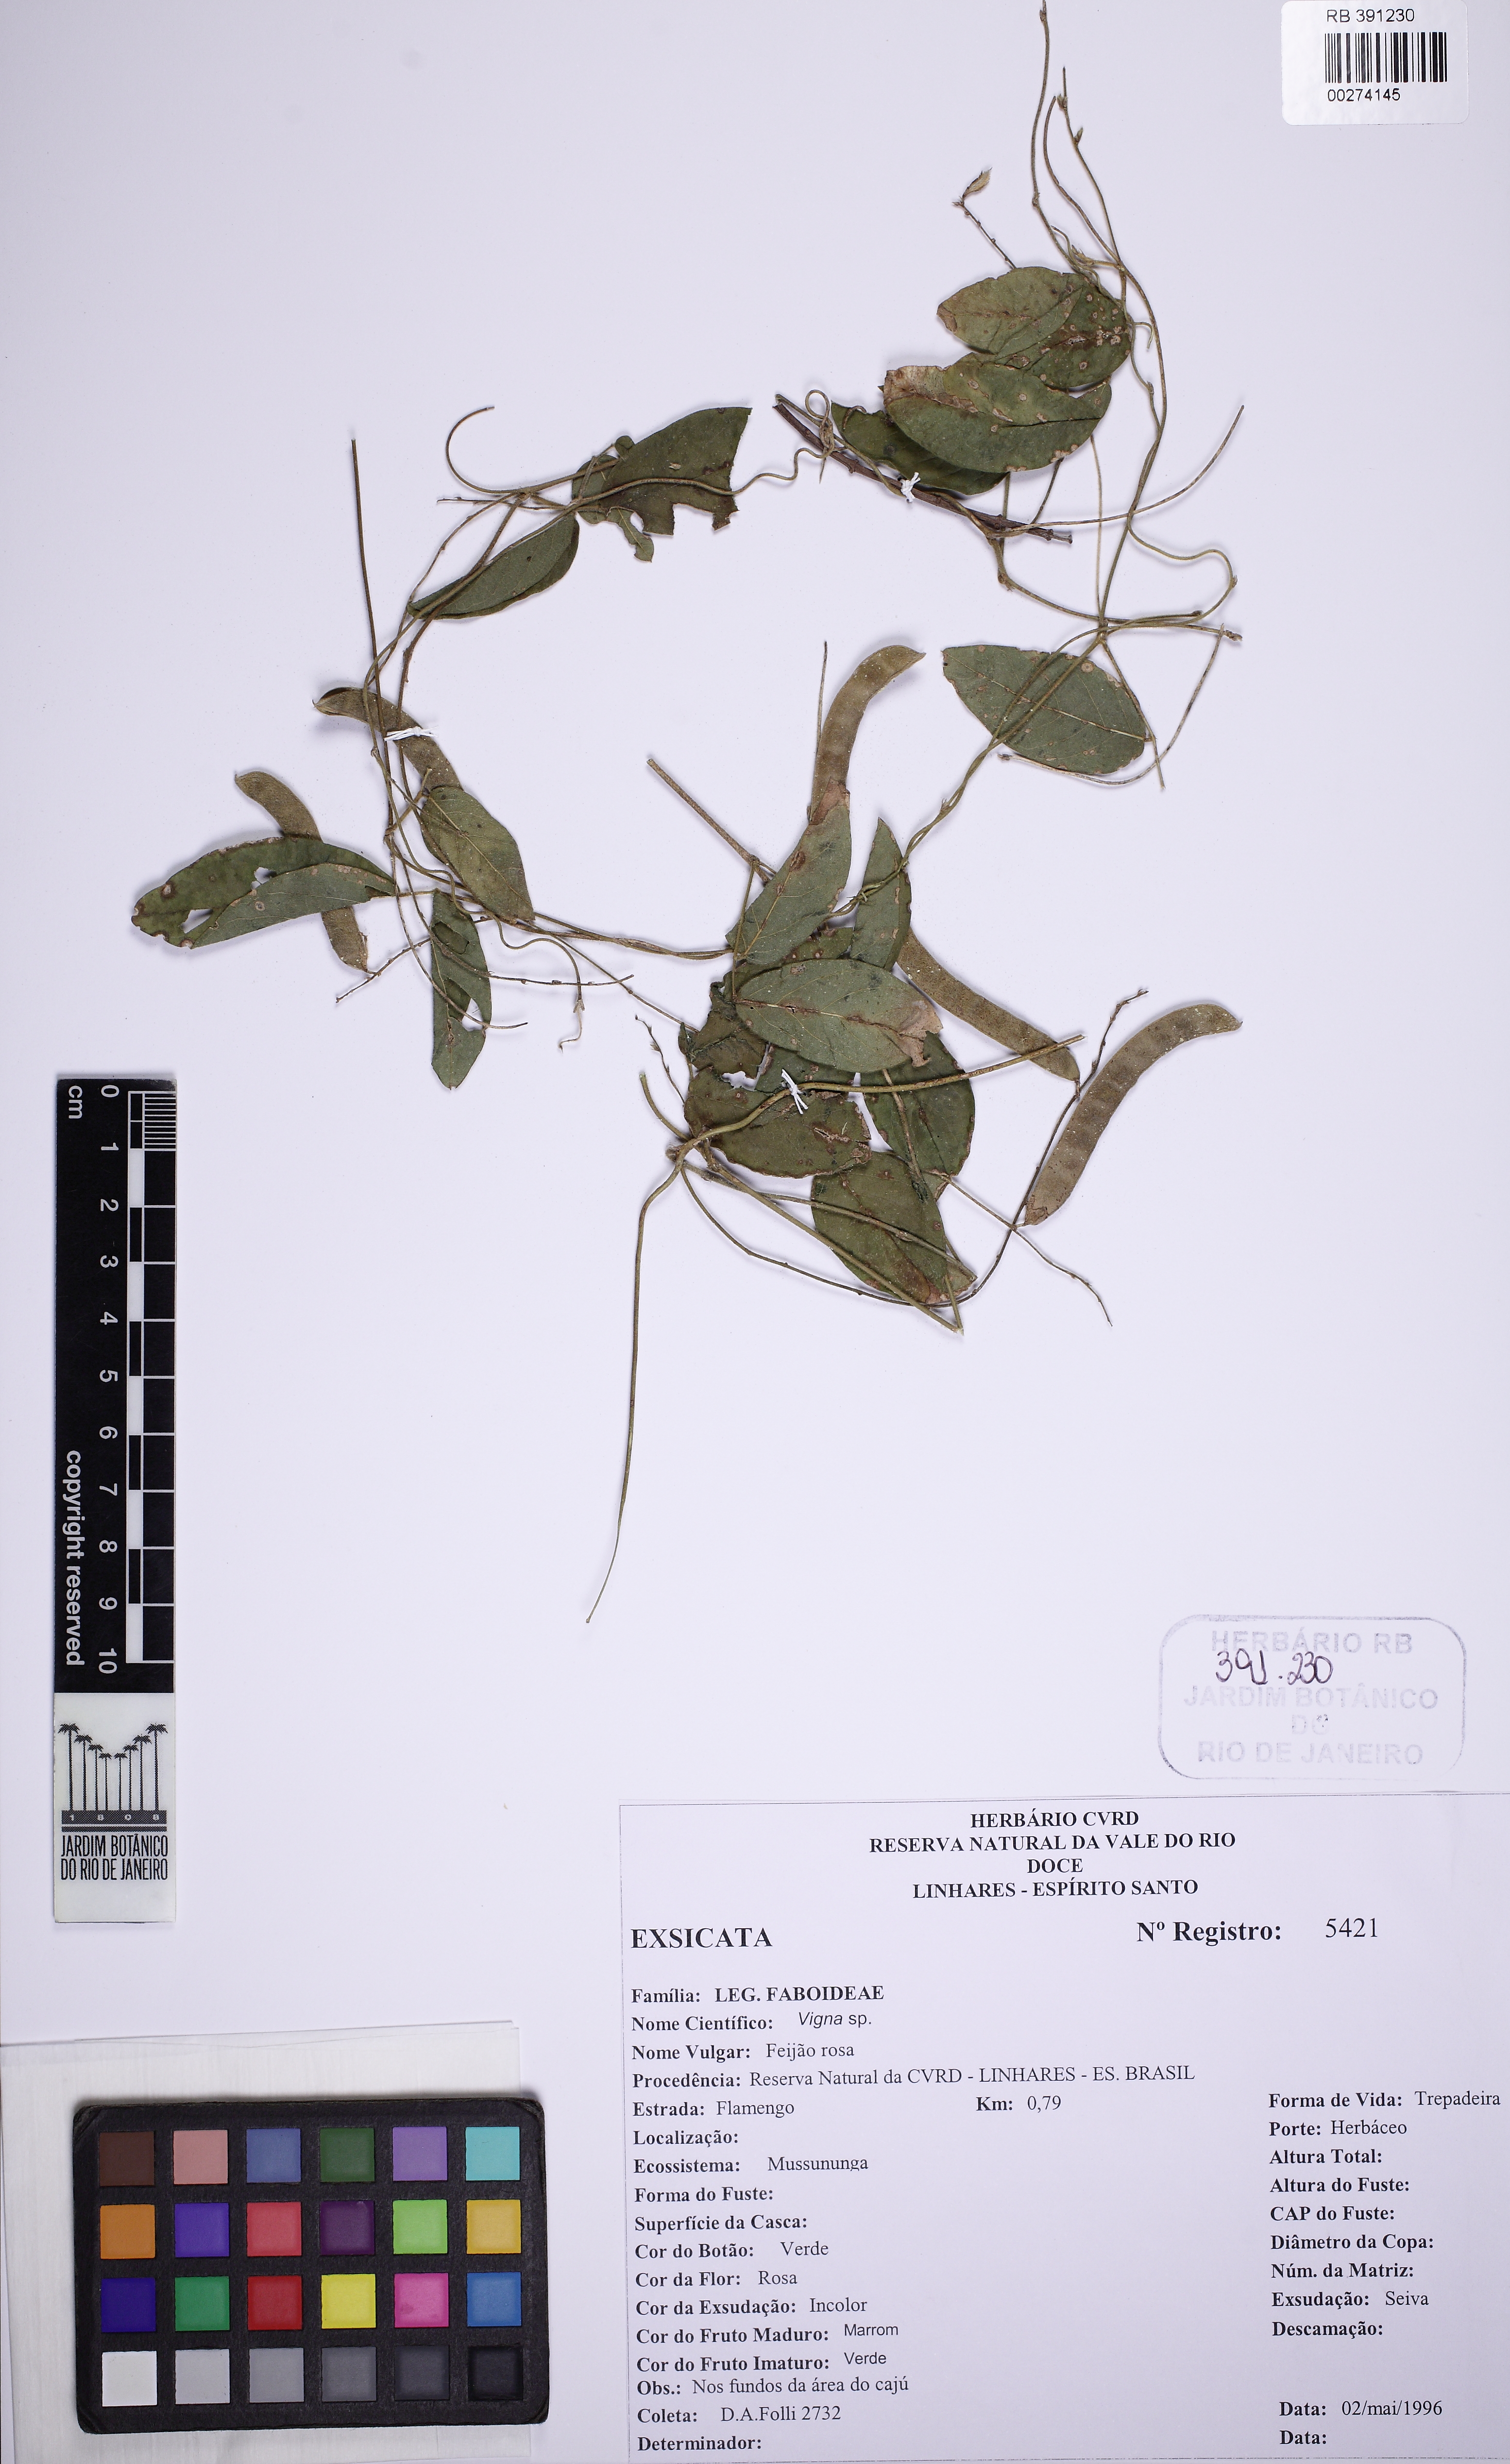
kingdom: Plantae
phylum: Tracheophyta
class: Magnoliopsida
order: Fabales
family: Fabaceae
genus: Galactia
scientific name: Galactia
